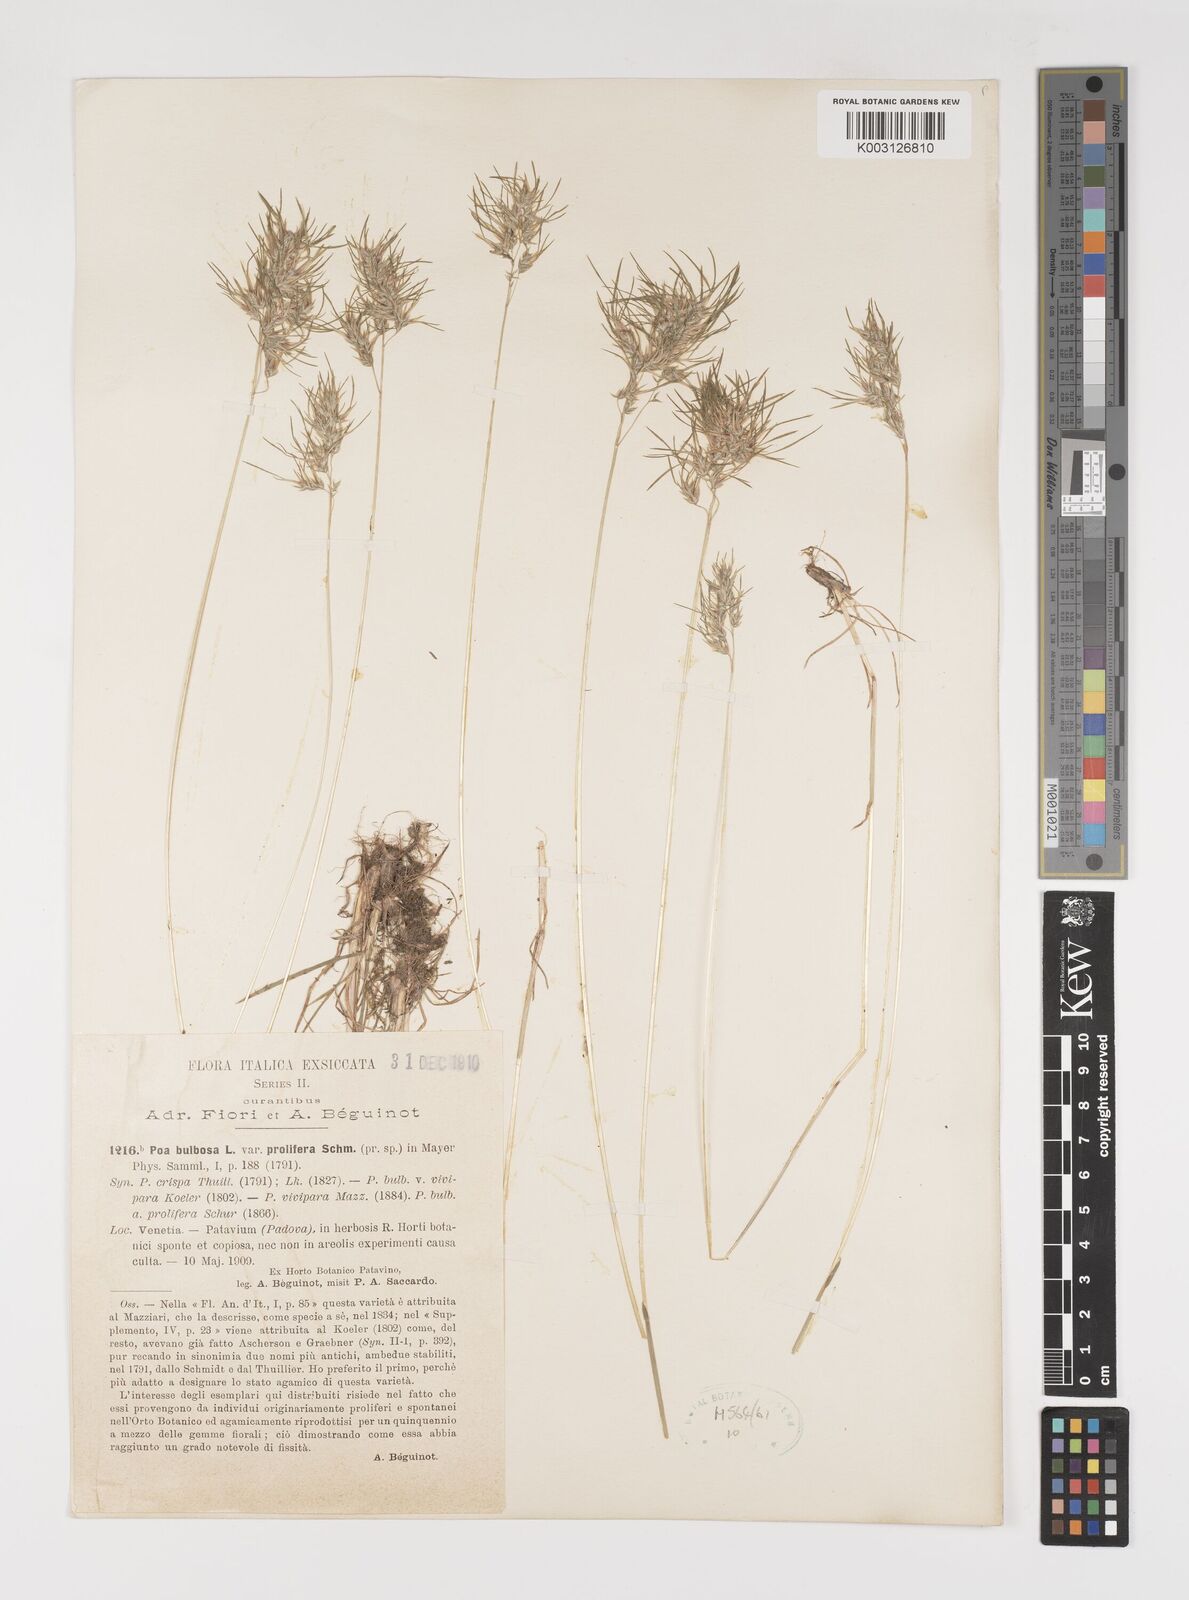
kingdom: Plantae
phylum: Tracheophyta
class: Liliopsida
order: Poales
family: Poaceae
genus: Poa
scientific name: Poa bulbosa
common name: Bulbous bluegrass
